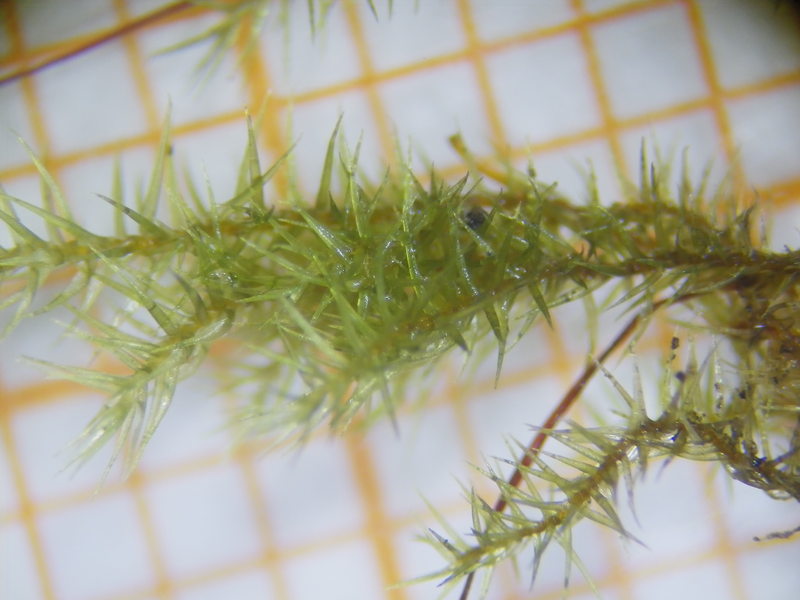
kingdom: Plantae
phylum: Bryophyta
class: Bryopsida
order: Hypnales
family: Sematophyllaceae
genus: Acroporium
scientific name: Acroporium convolutum
